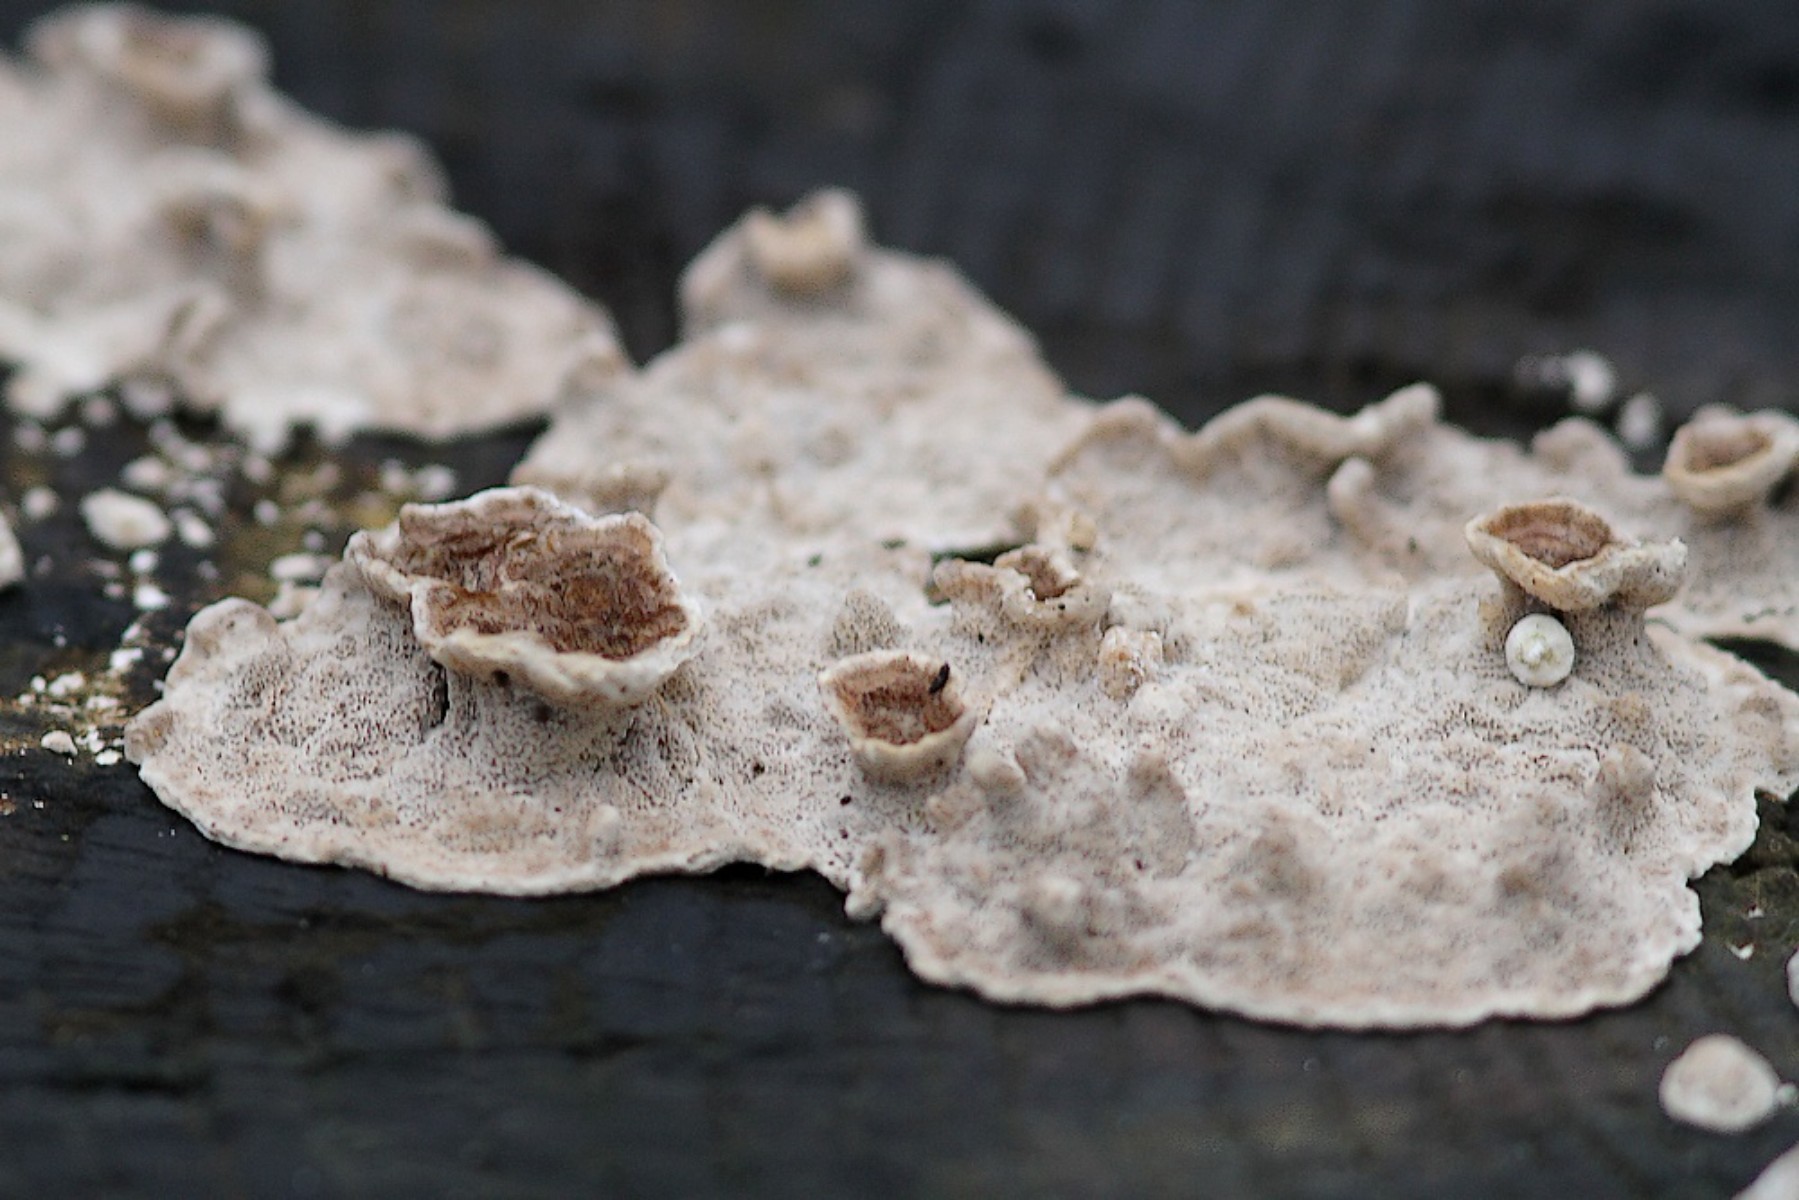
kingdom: Fungi
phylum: Basidiomycota
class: Agaricomycetes
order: Polyporales
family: Polyporaceae
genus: Trametes
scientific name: Trametes versicolor
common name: broget læderporesvamp
